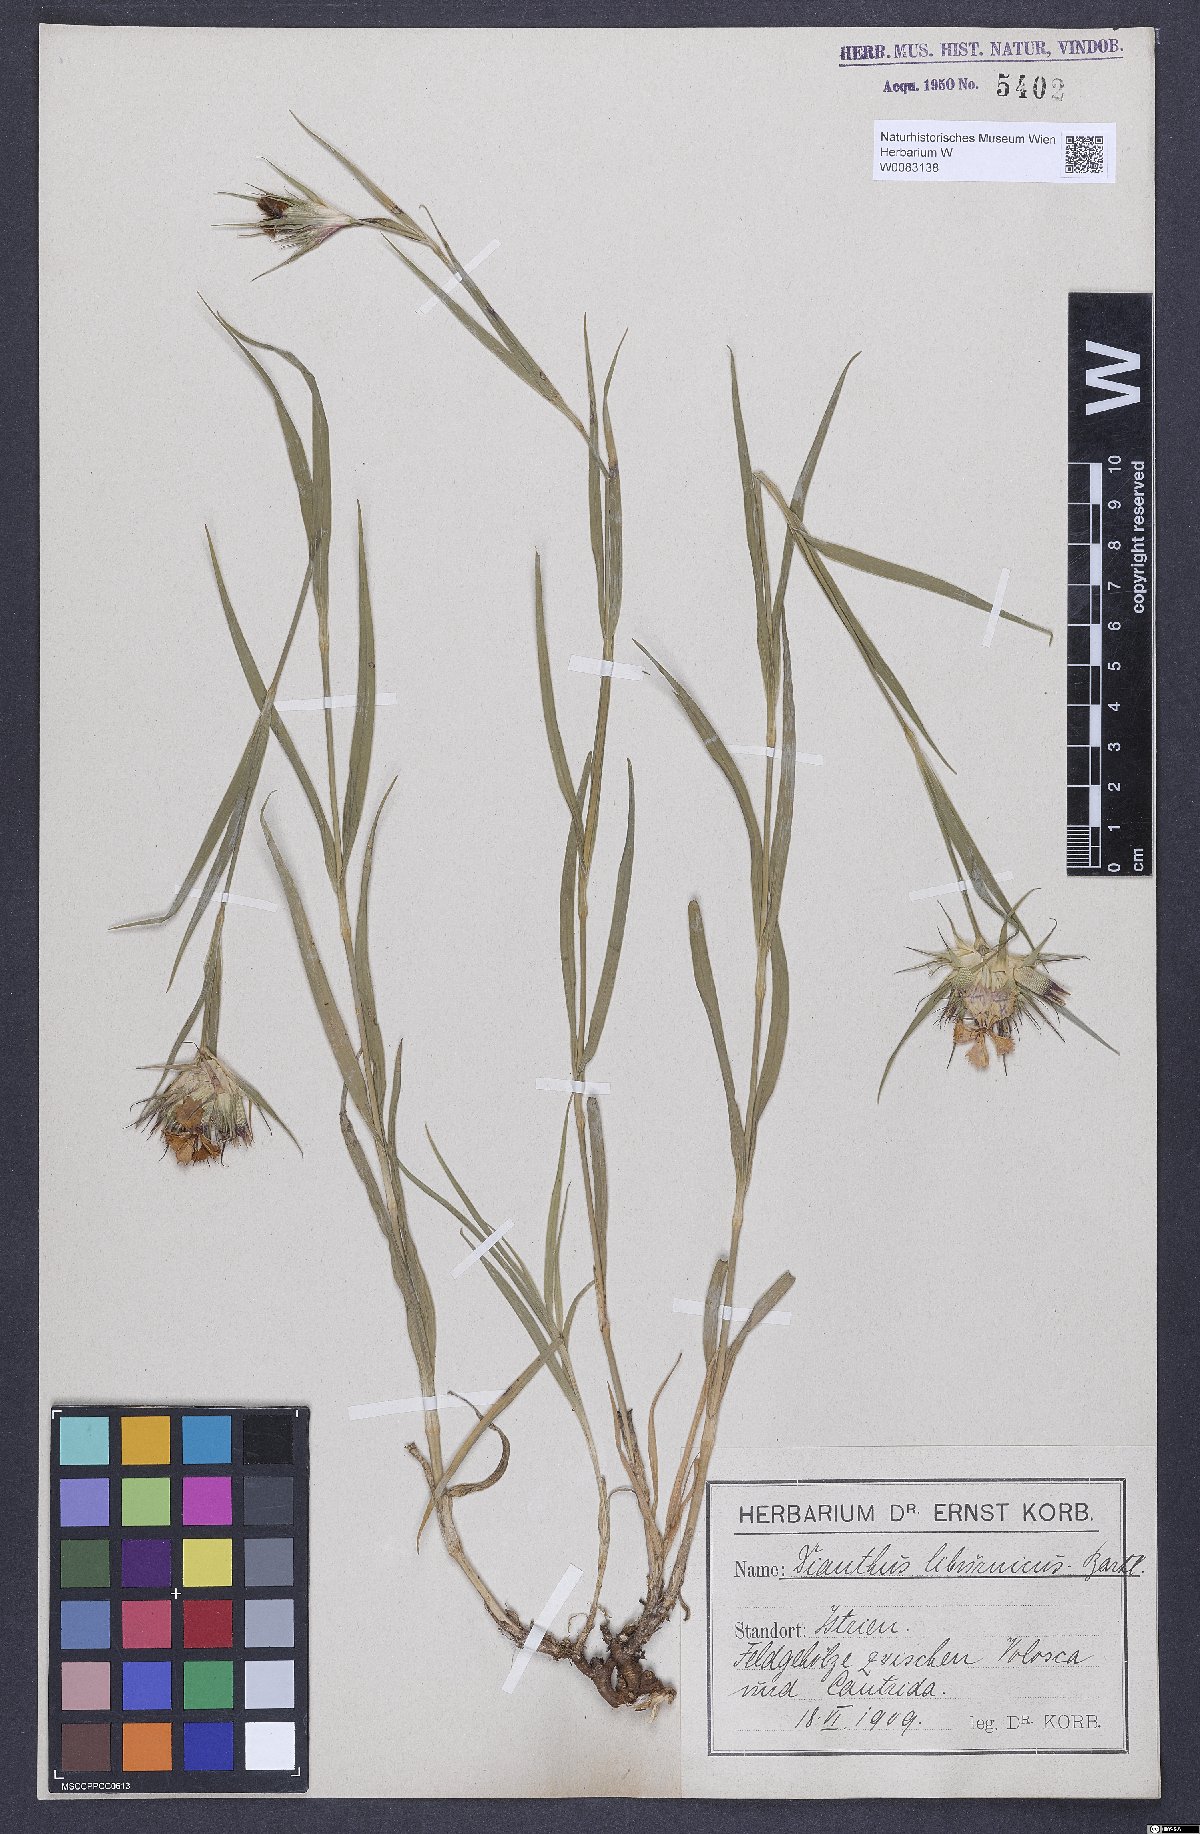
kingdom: Plantae
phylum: Tracheophyta
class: Magnoliopsida
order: Caryophyllales
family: Caryophyllaceae
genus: Dianthus
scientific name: Dianthus balbisii
